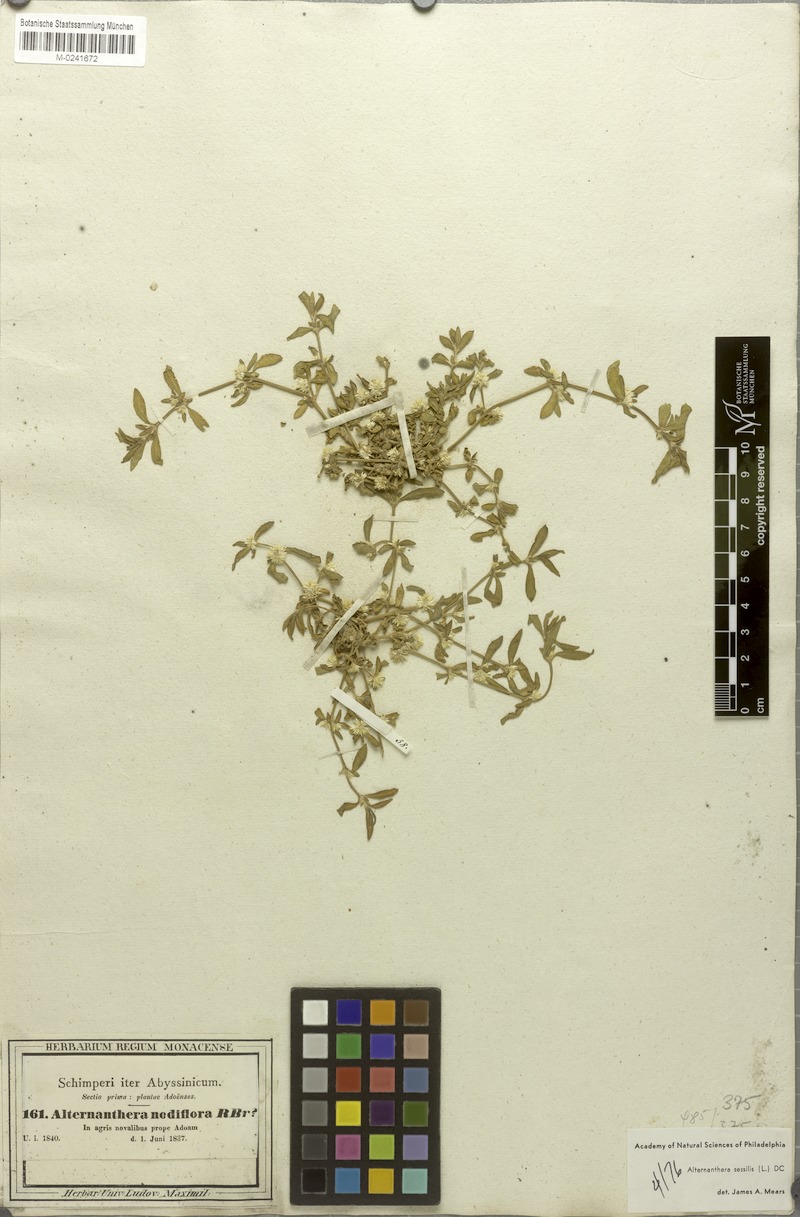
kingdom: Plantae
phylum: Tracheophyta
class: Magnoliopsida
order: Caryophyllales
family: Amaranthaceae
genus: Alternanthera
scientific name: Alternanthera sessilis
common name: Sessile joyweed
